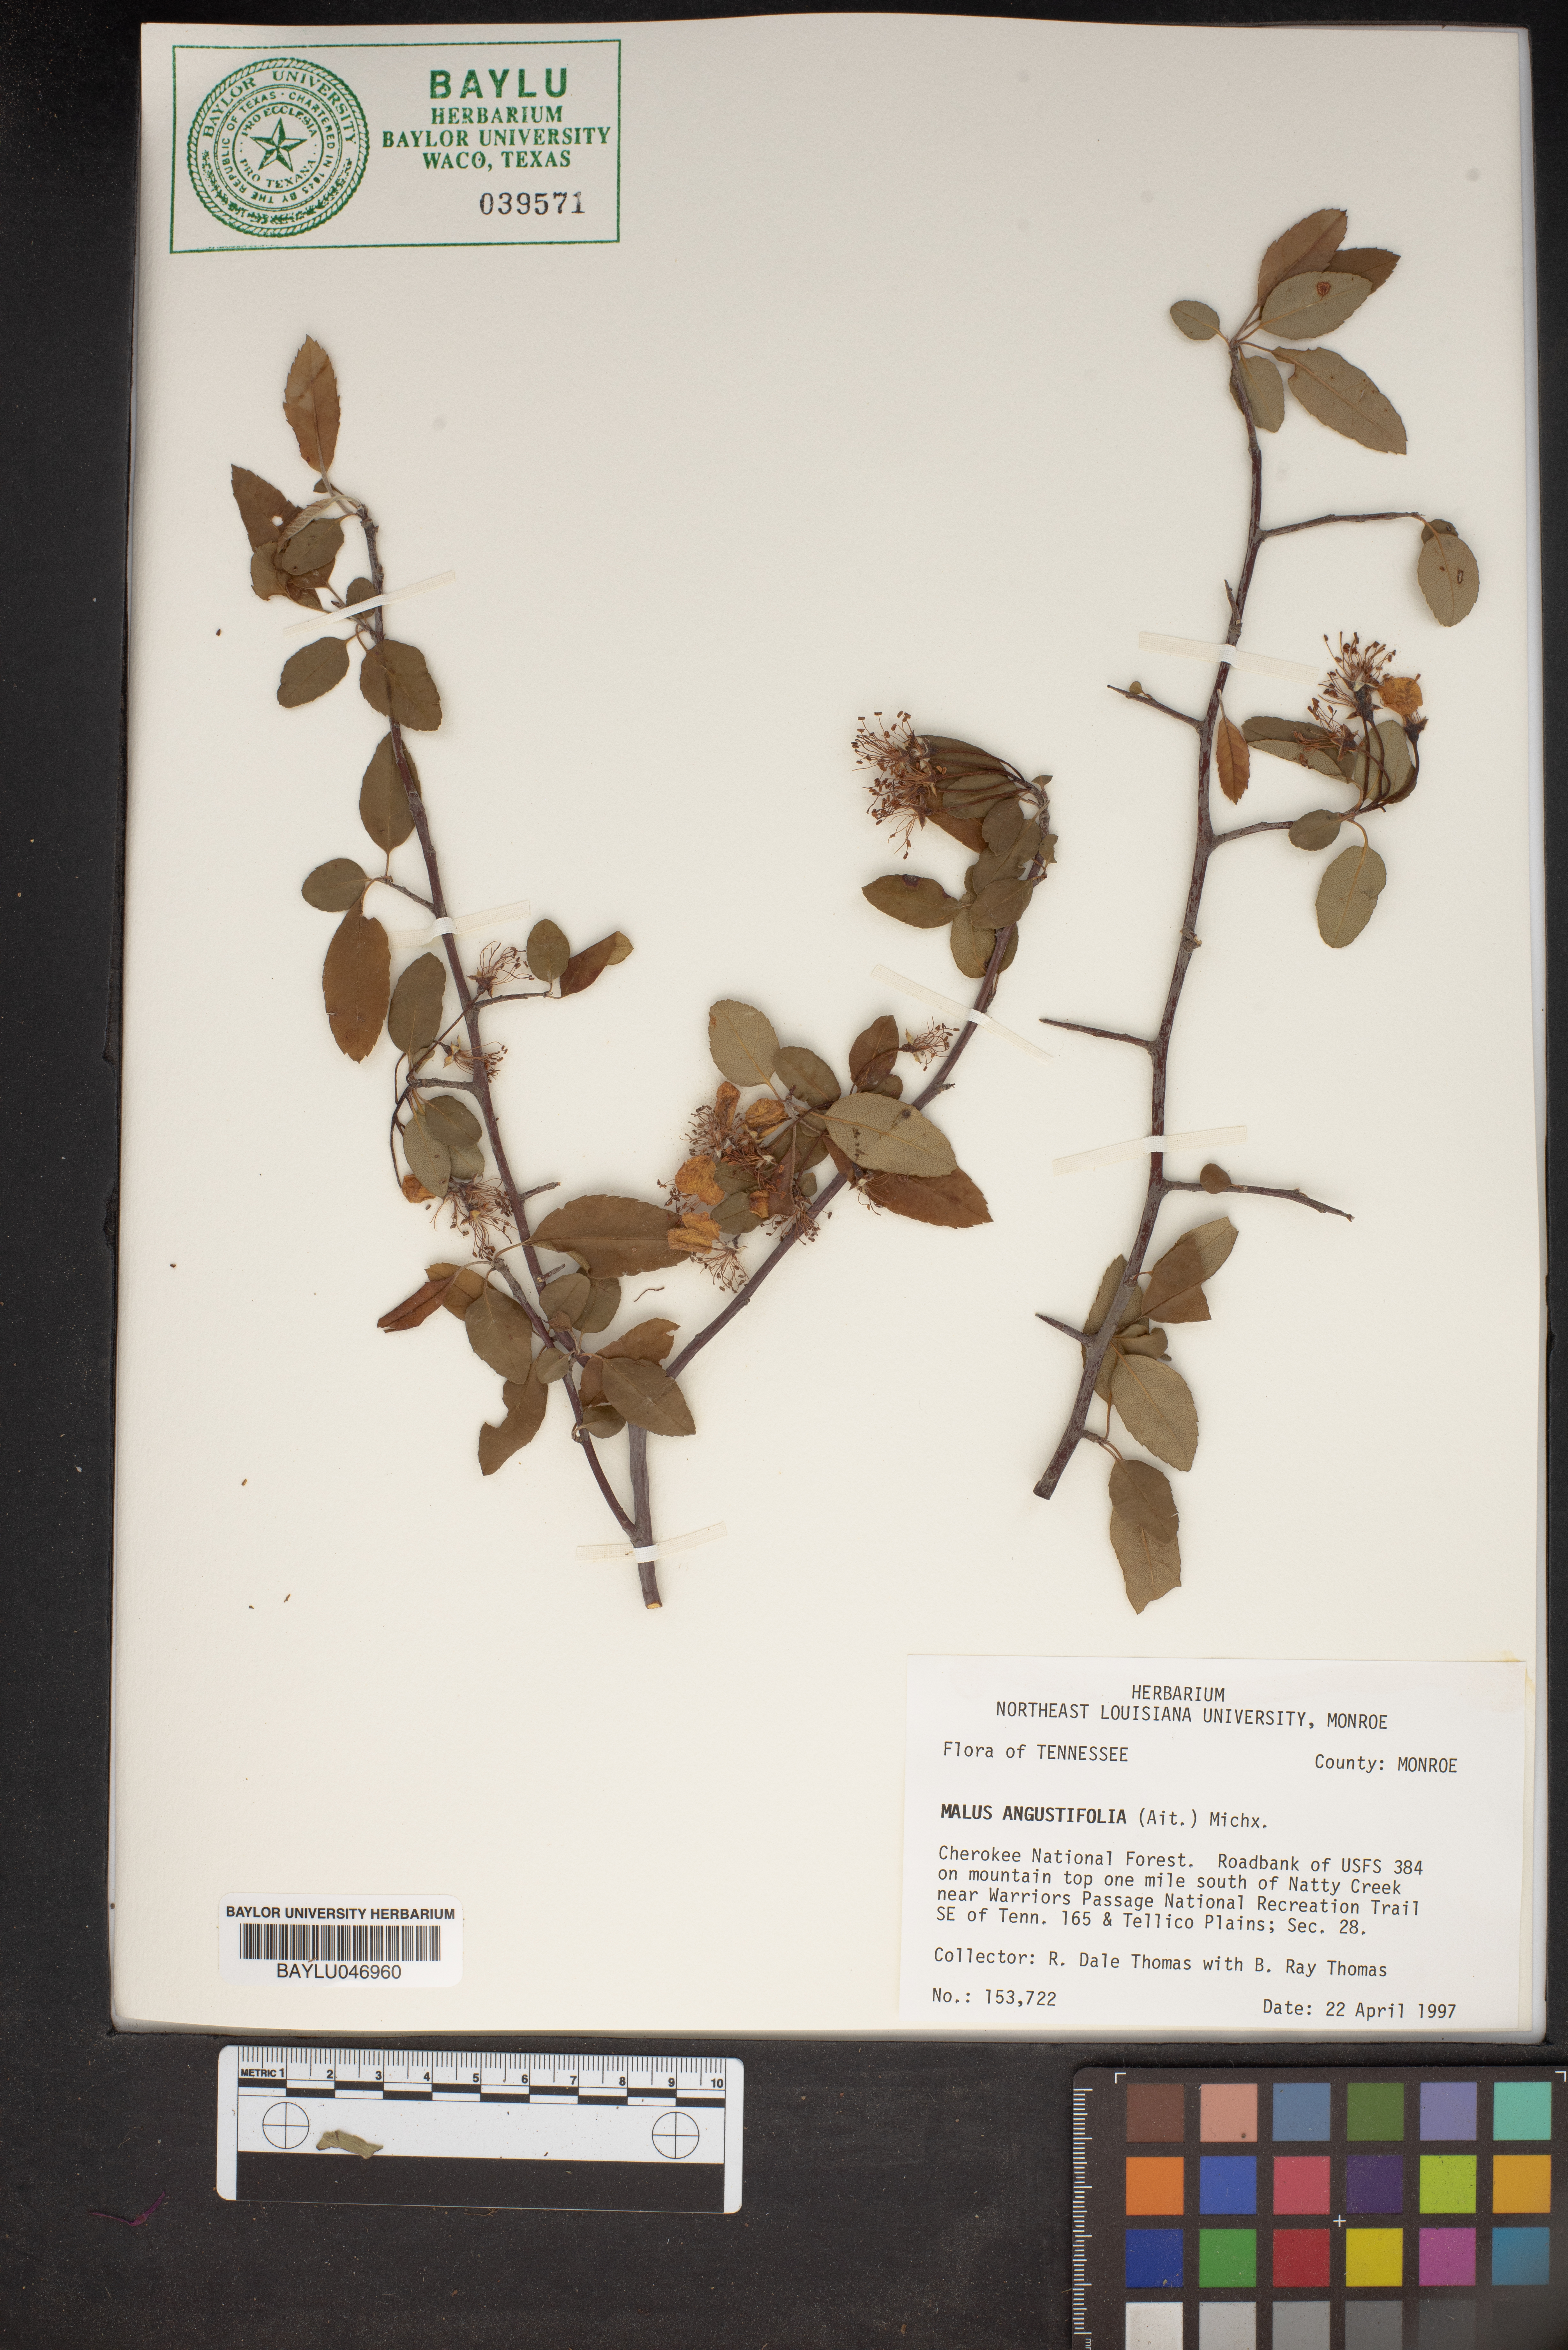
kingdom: Plantae
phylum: Tracheophyta
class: Magnoliopsida
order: Rosales
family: Rosaceae
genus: Malus
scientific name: Malus angustifolia
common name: Southern crab apple
